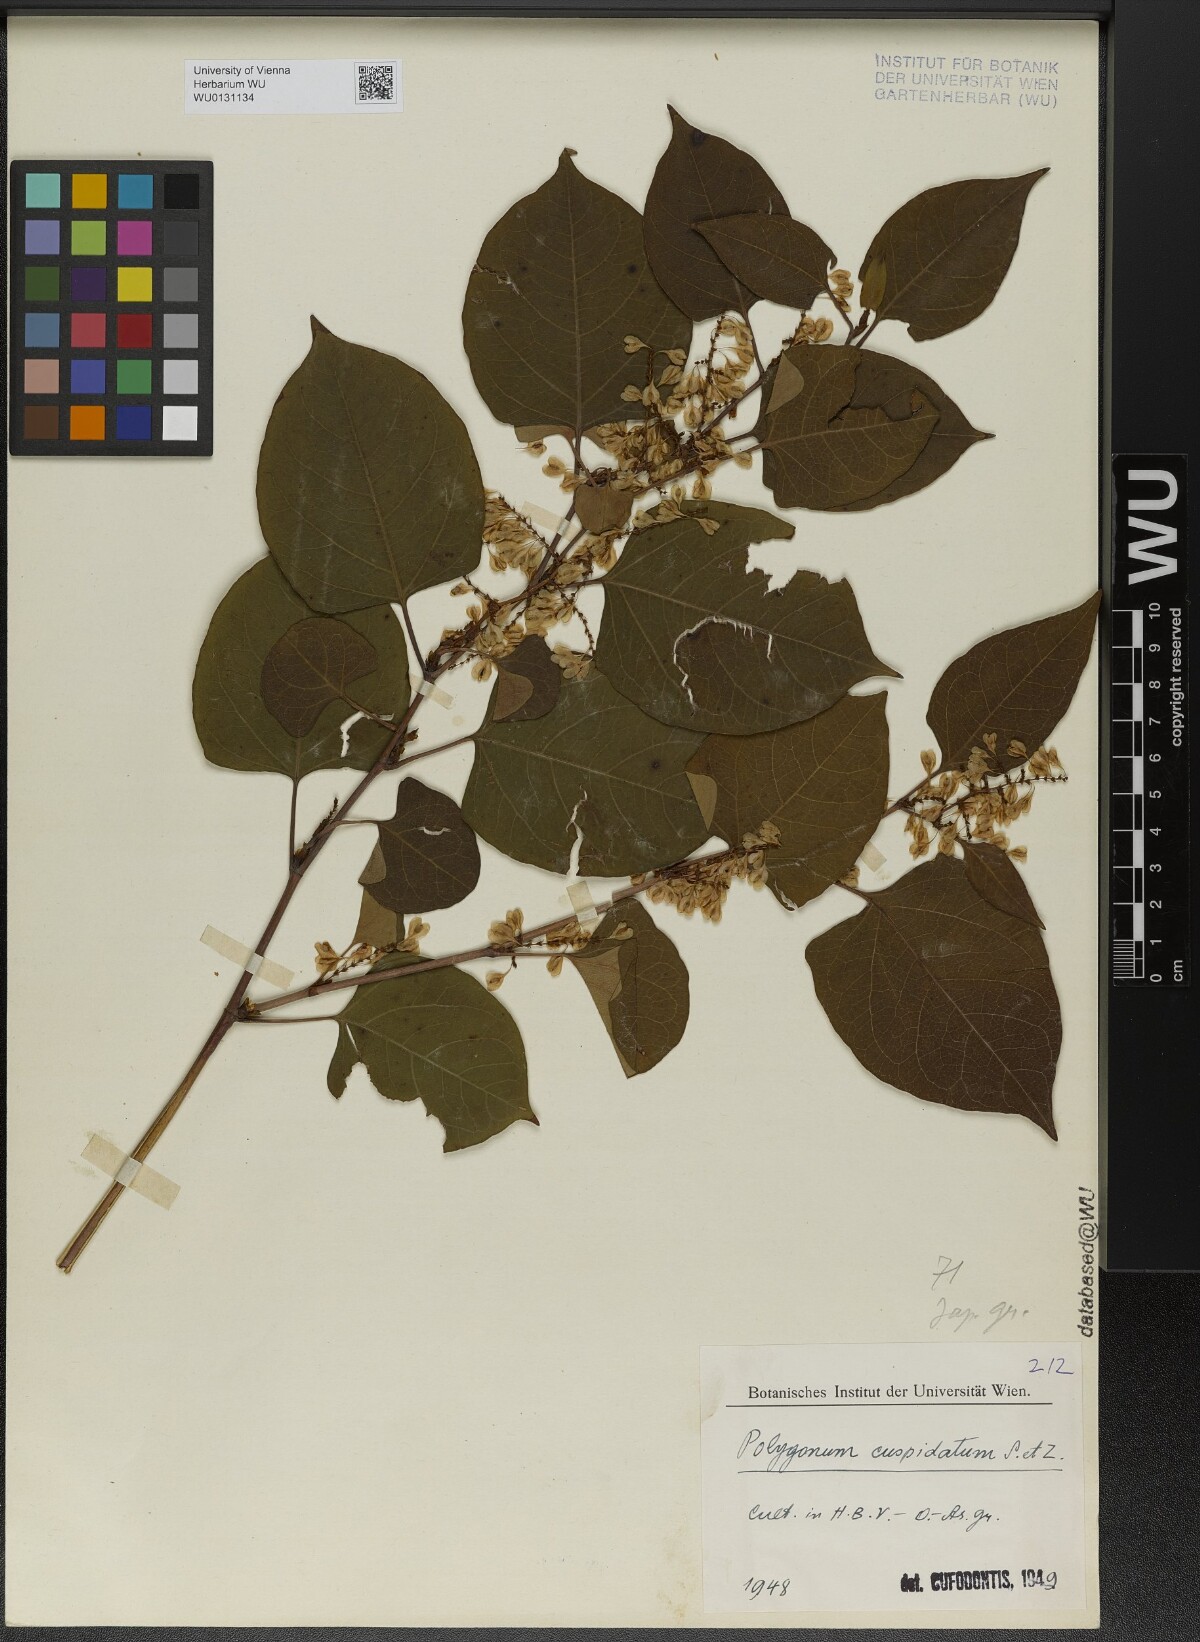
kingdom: Plantae
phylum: Tracheophyta
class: Magnoliopsida
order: Caryophyllales
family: Polygonaceae
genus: Reynoutria
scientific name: Reynoutria japonica
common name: Japanese knotweed
